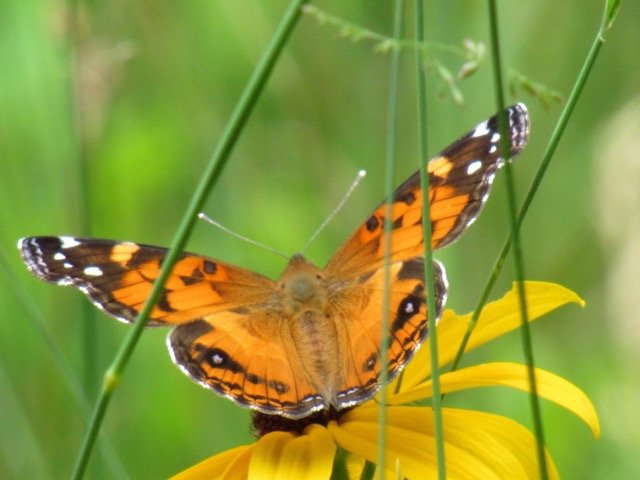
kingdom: Animalia
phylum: Arthropoda
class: Insecta
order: Lepidoptera
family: Nymphalidae
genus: Vanessa
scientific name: Vanessa virginiensis
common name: American Lady
